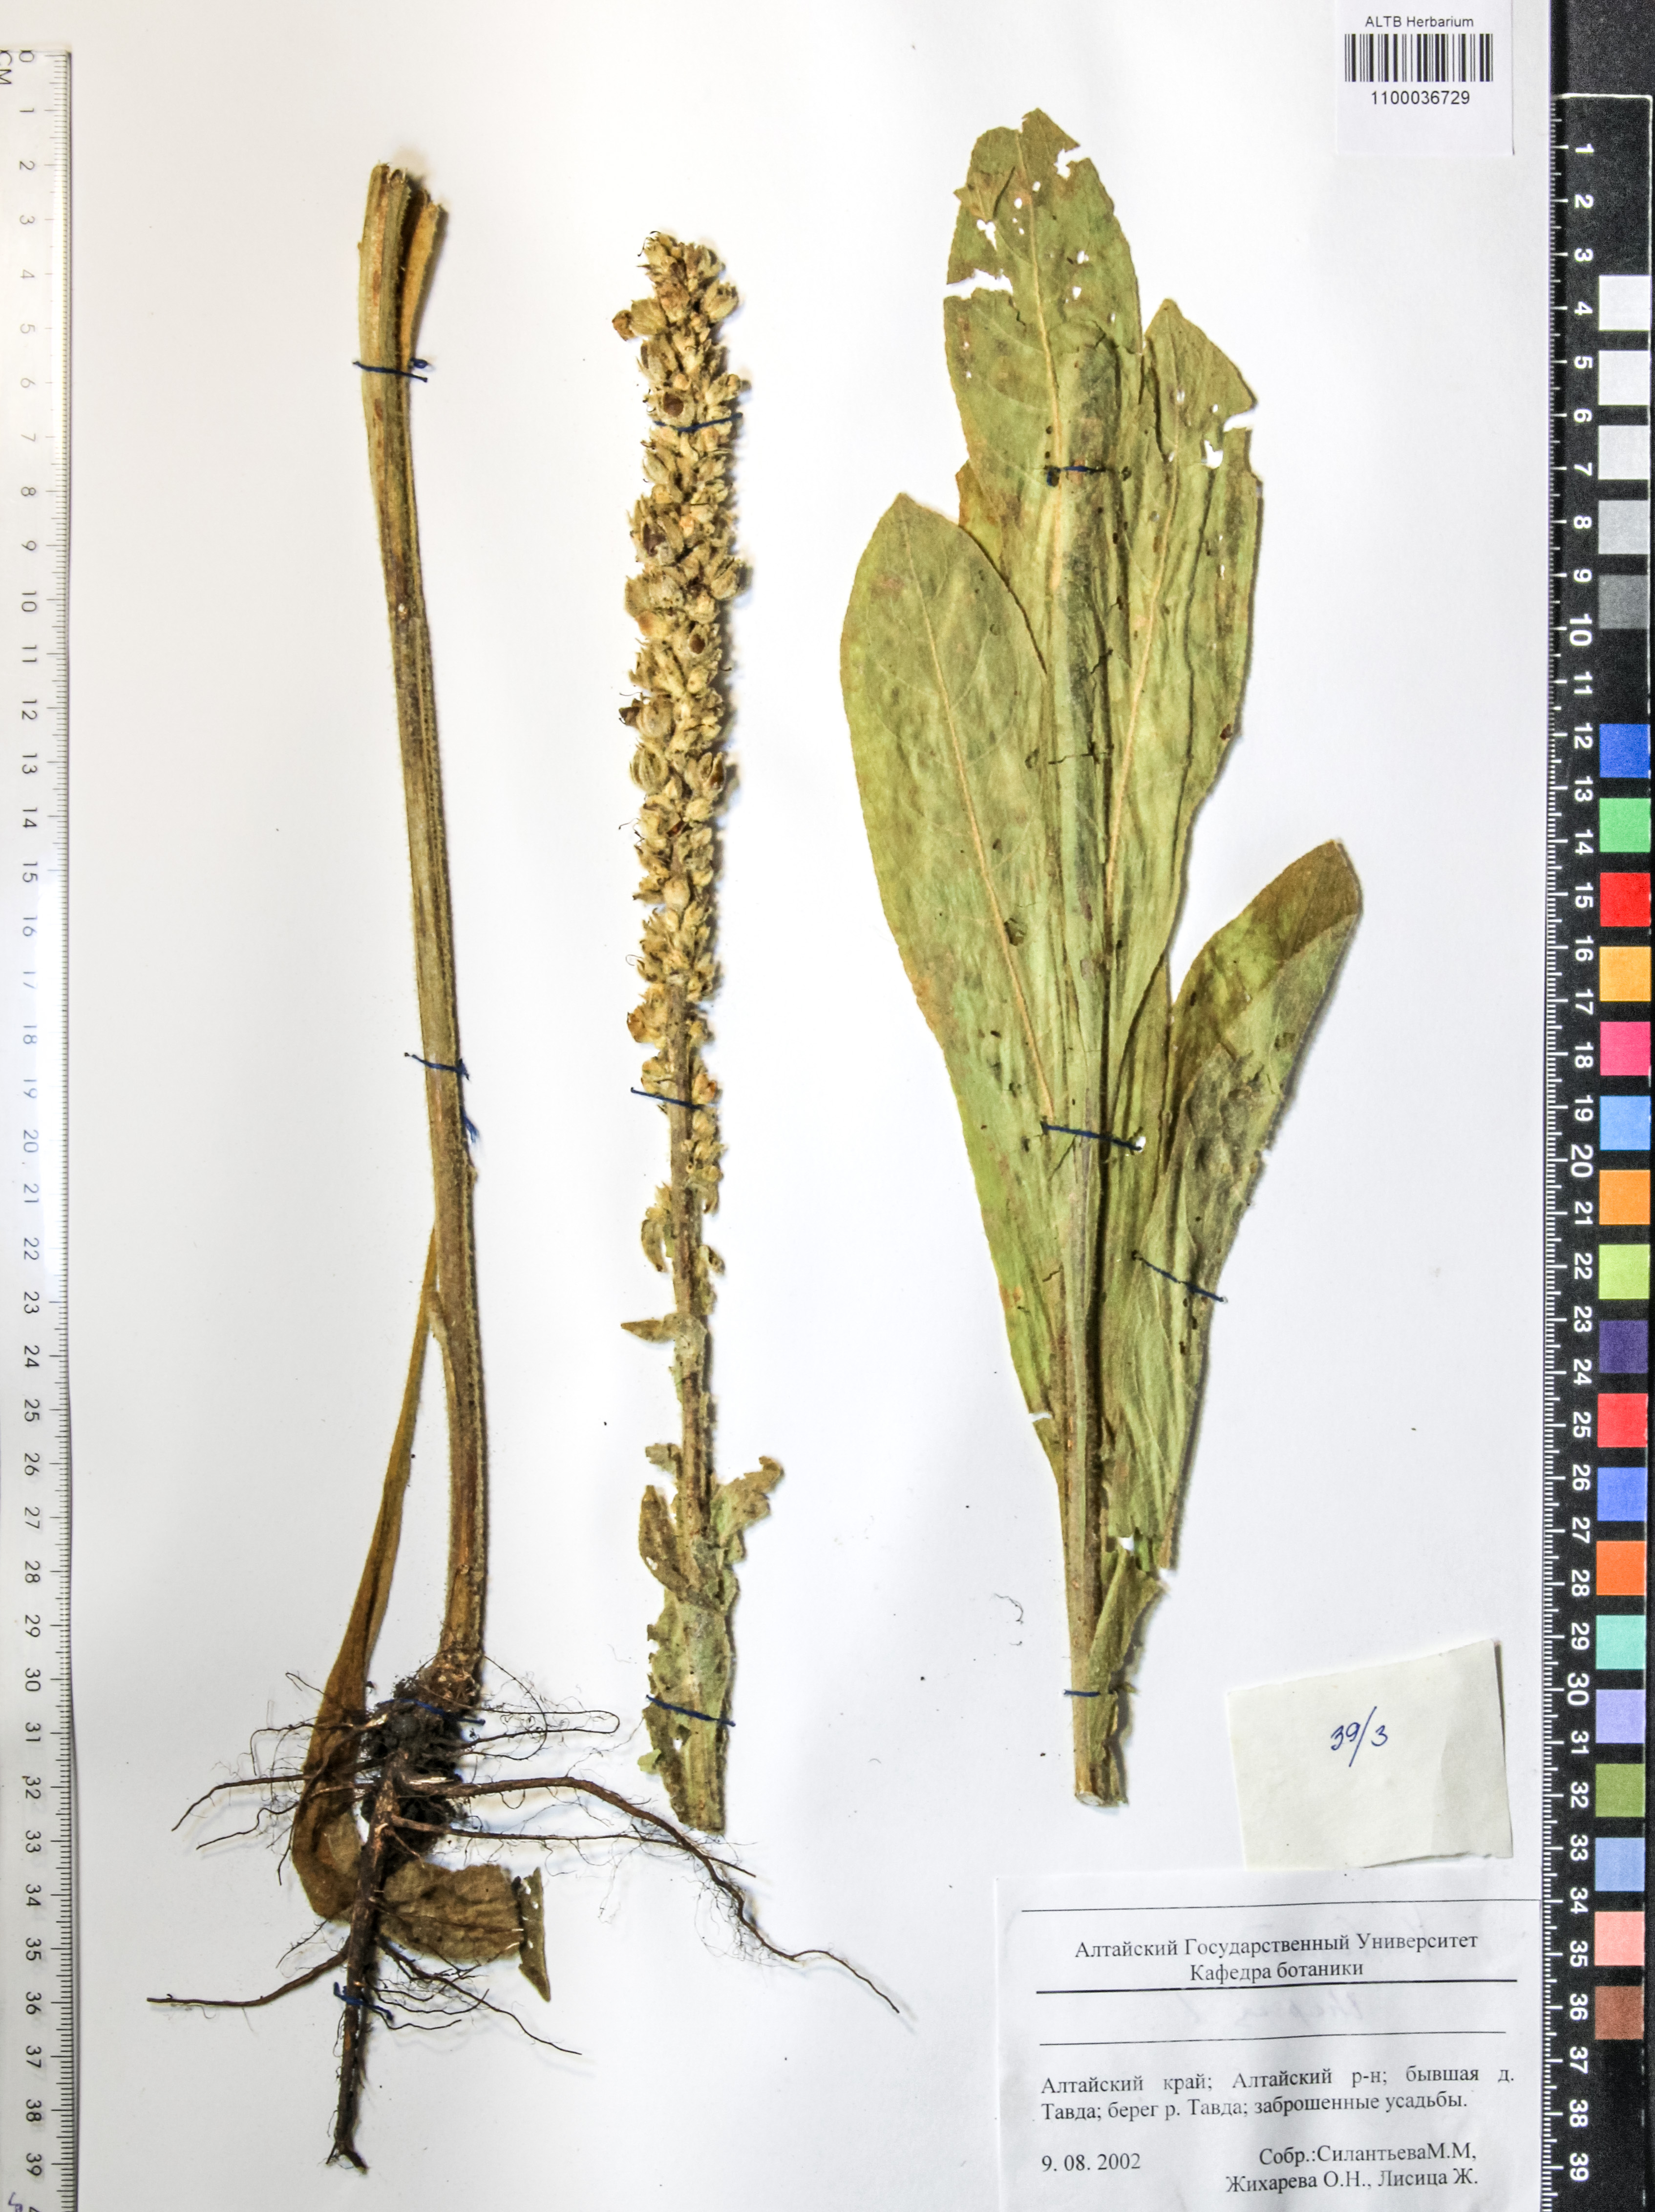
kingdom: Plantae
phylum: Tracheophyta
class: Magnoliopsida
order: Lamiales
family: Scrophulariaceae
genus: Verbascum
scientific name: Verbascum thapsus
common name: Common mullein
